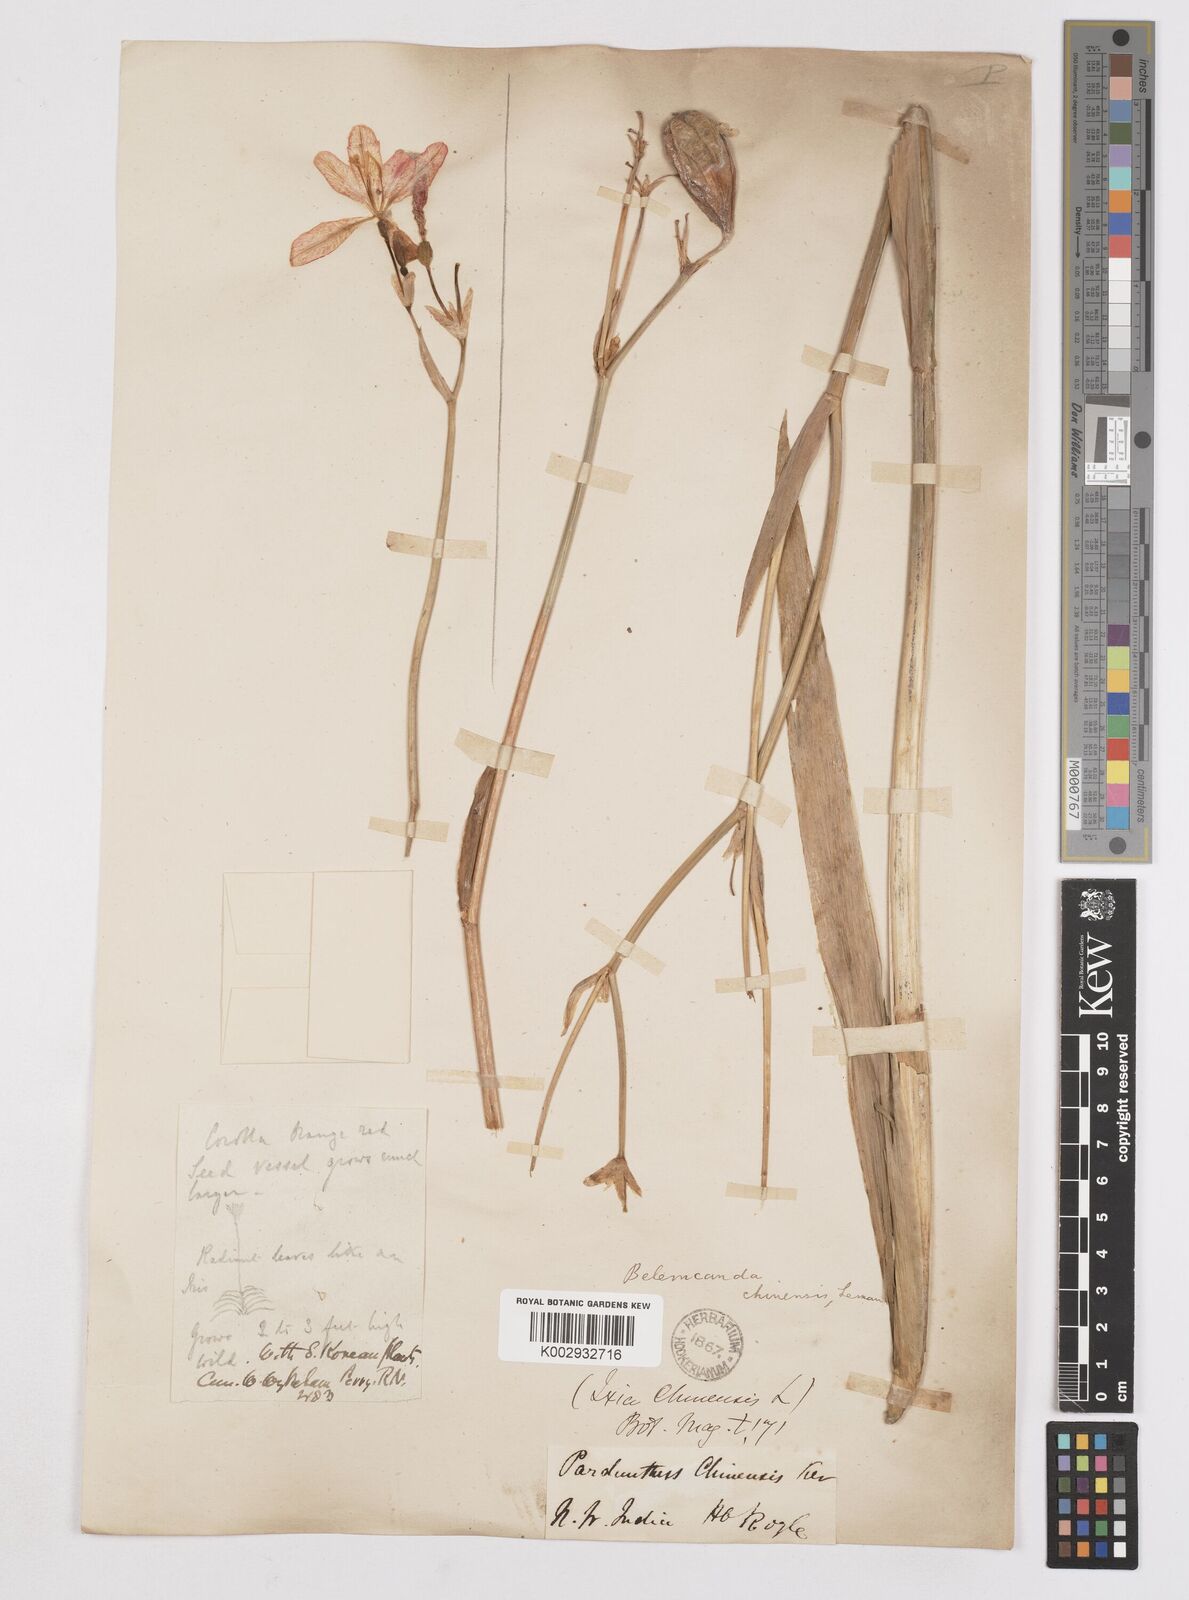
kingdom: Plantae
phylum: Tracheophyta
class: Liliopsida
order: Asparagales
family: Iridaceae
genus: Iris
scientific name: Iris
